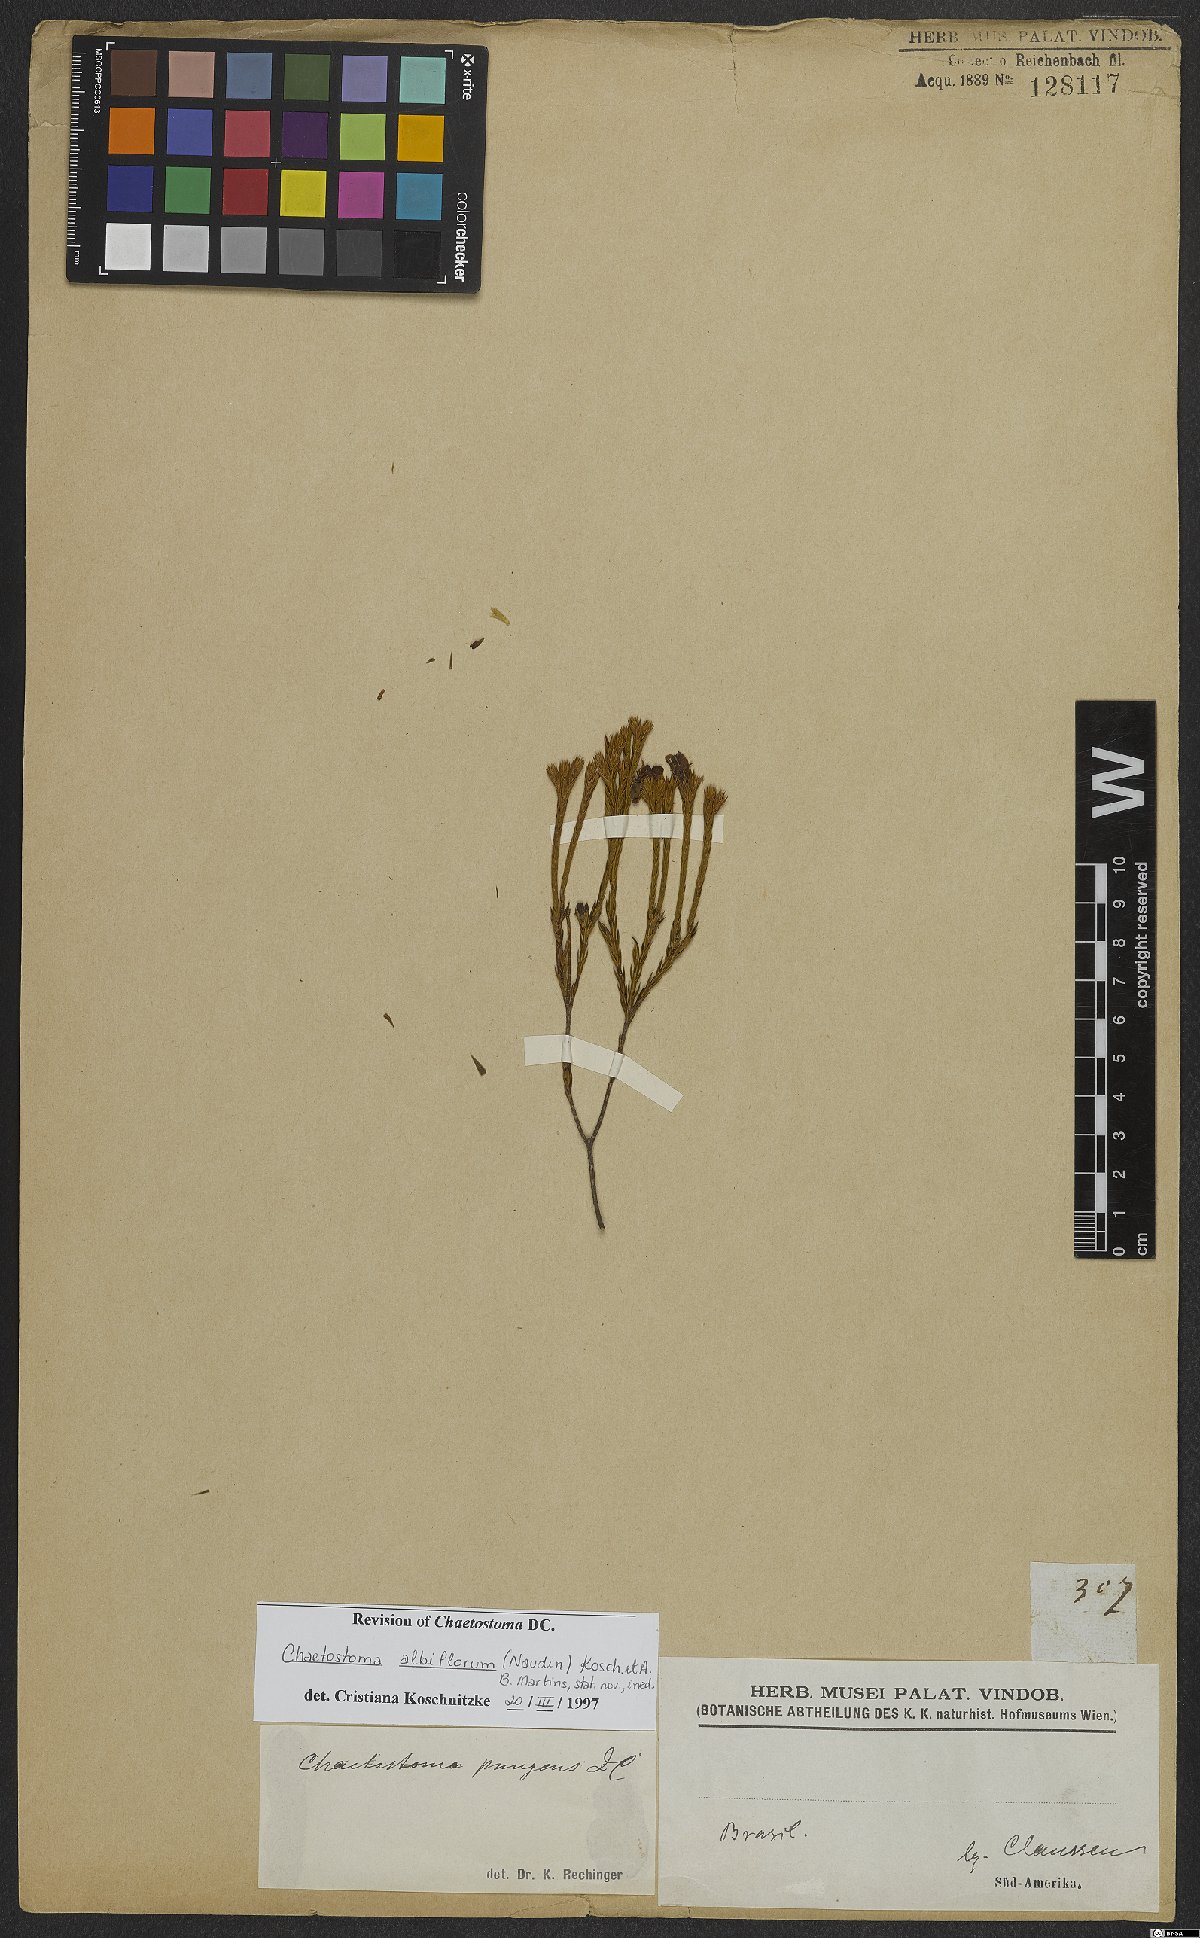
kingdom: Plantae
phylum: Tracheophyta
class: Magnoliopsida
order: Myrtales
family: Melastomataceae
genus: Microlicia
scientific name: Microlicia albiflora
